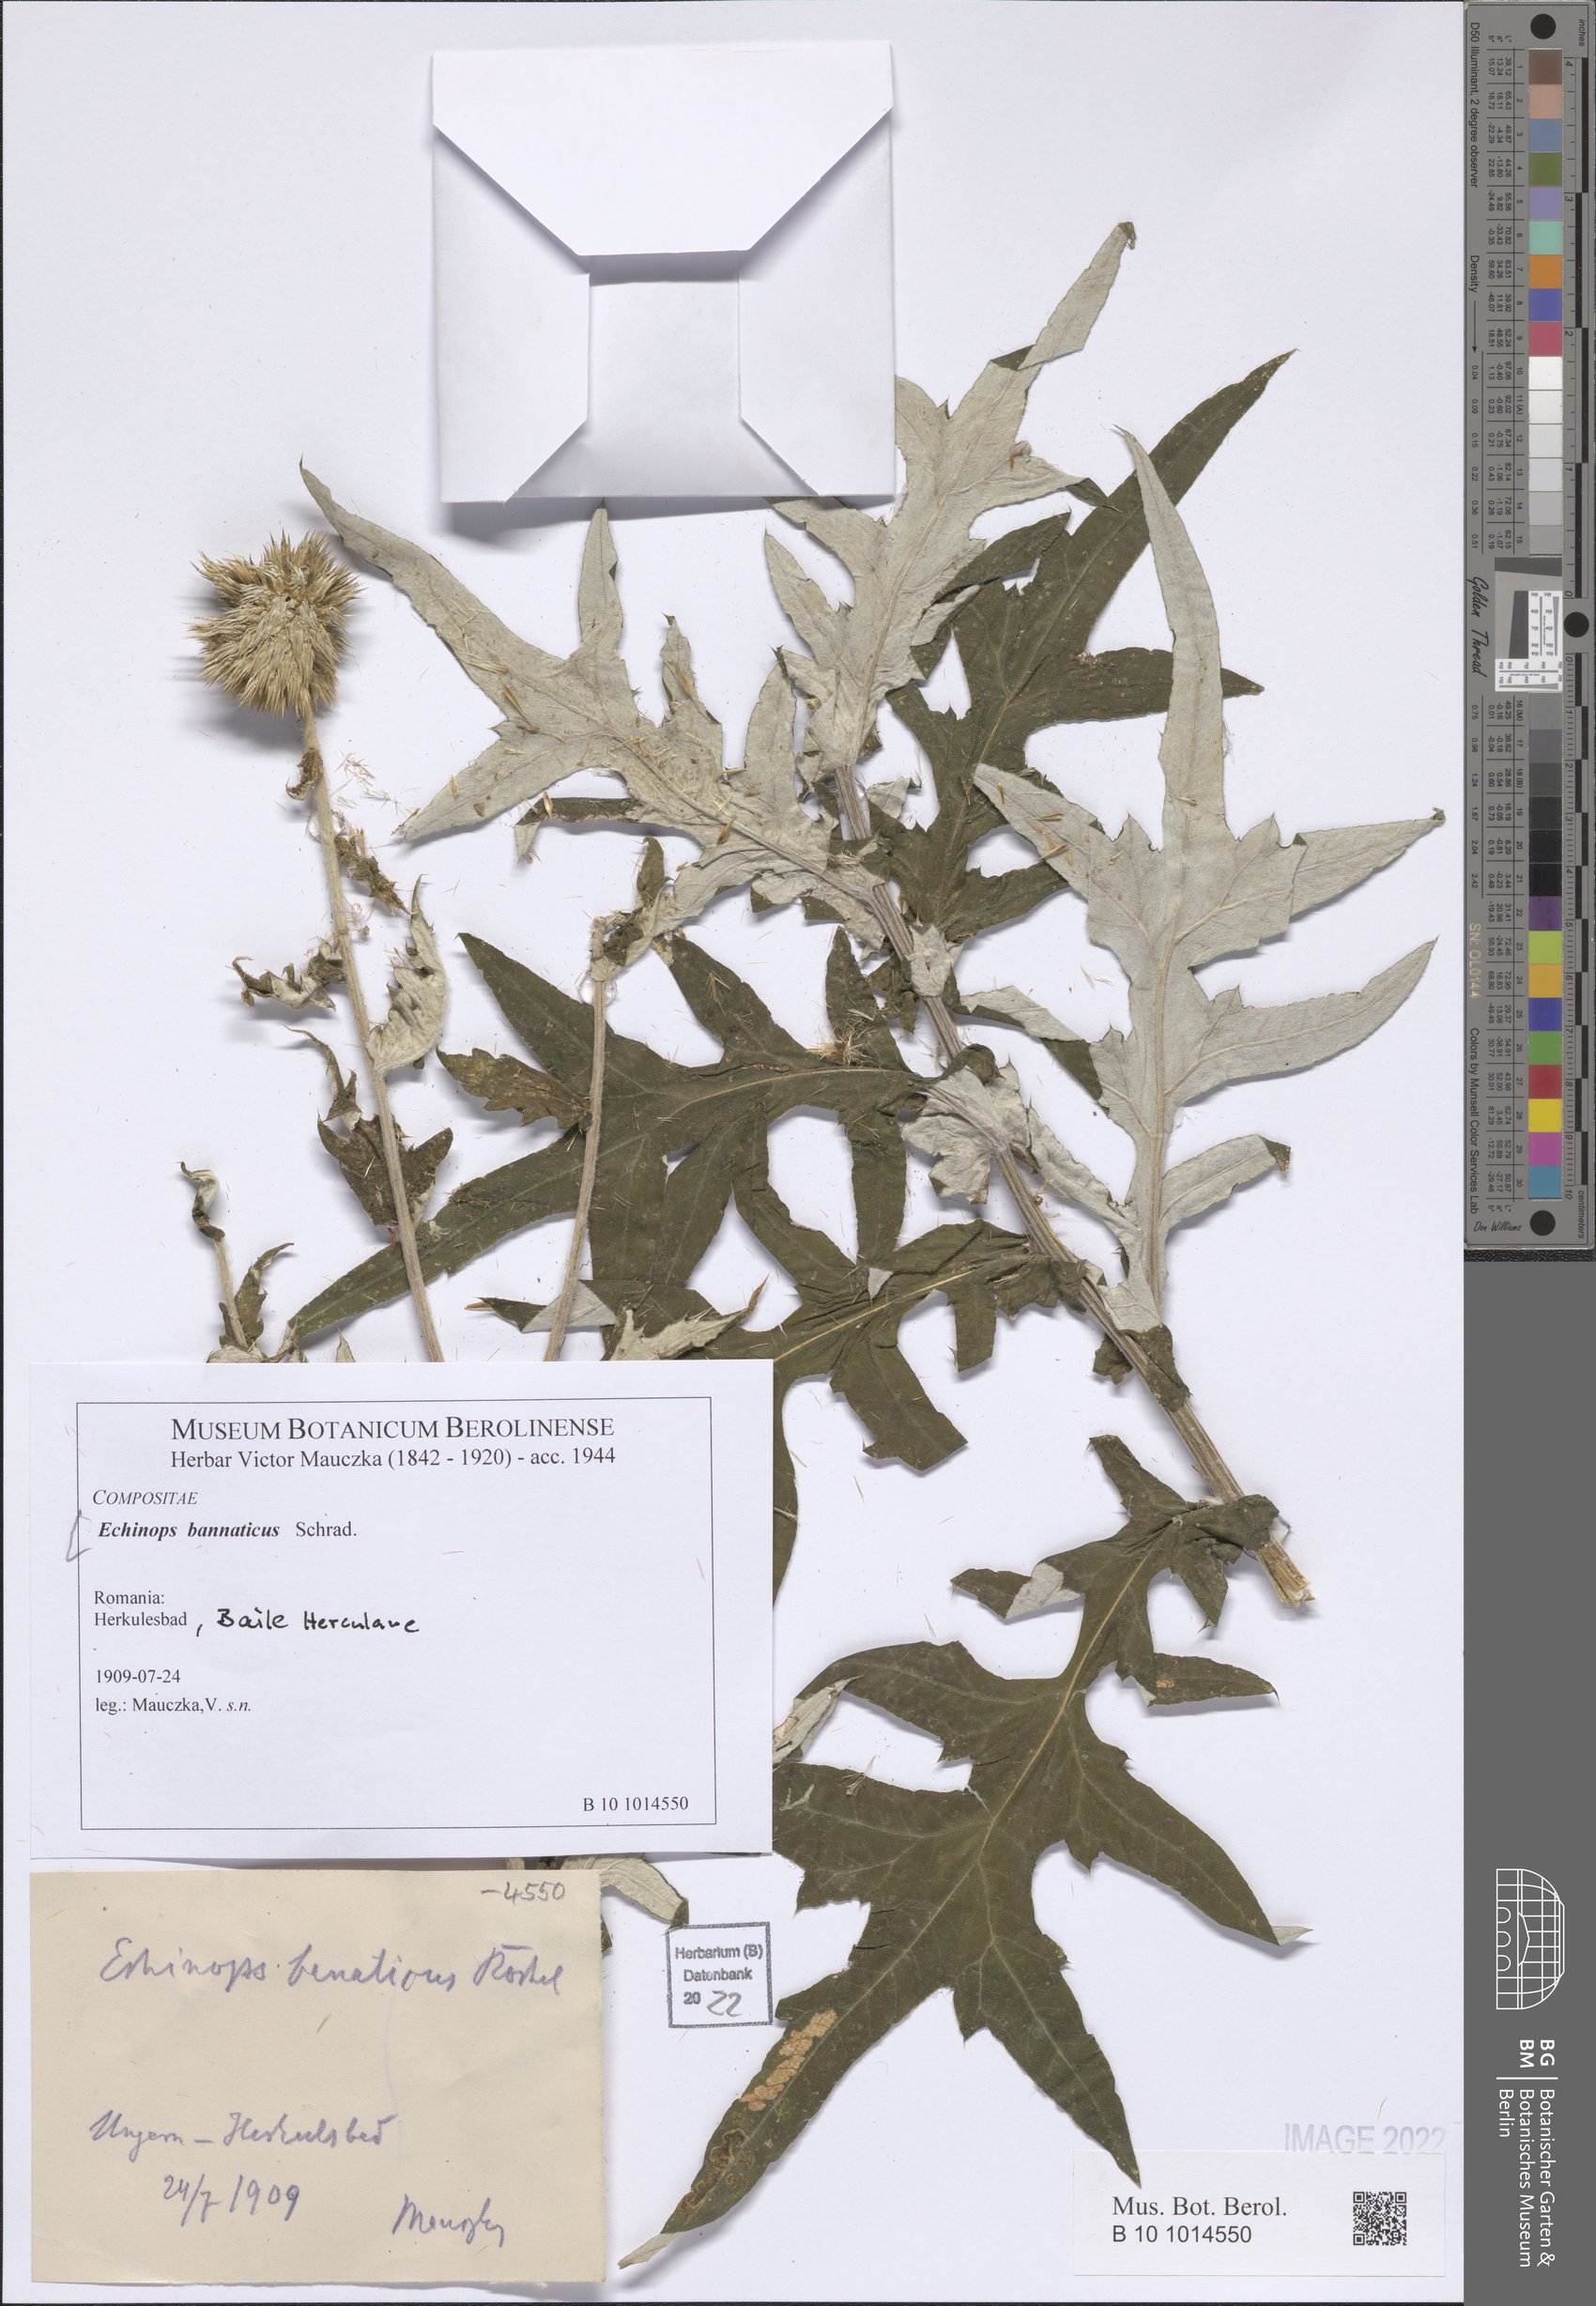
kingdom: Plantae
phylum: Tracheophyta
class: Magnoliopsida
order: Asterales
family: Asteraceae
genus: Echinops
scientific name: Echinops bannaticus
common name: Blue globe-thistle
